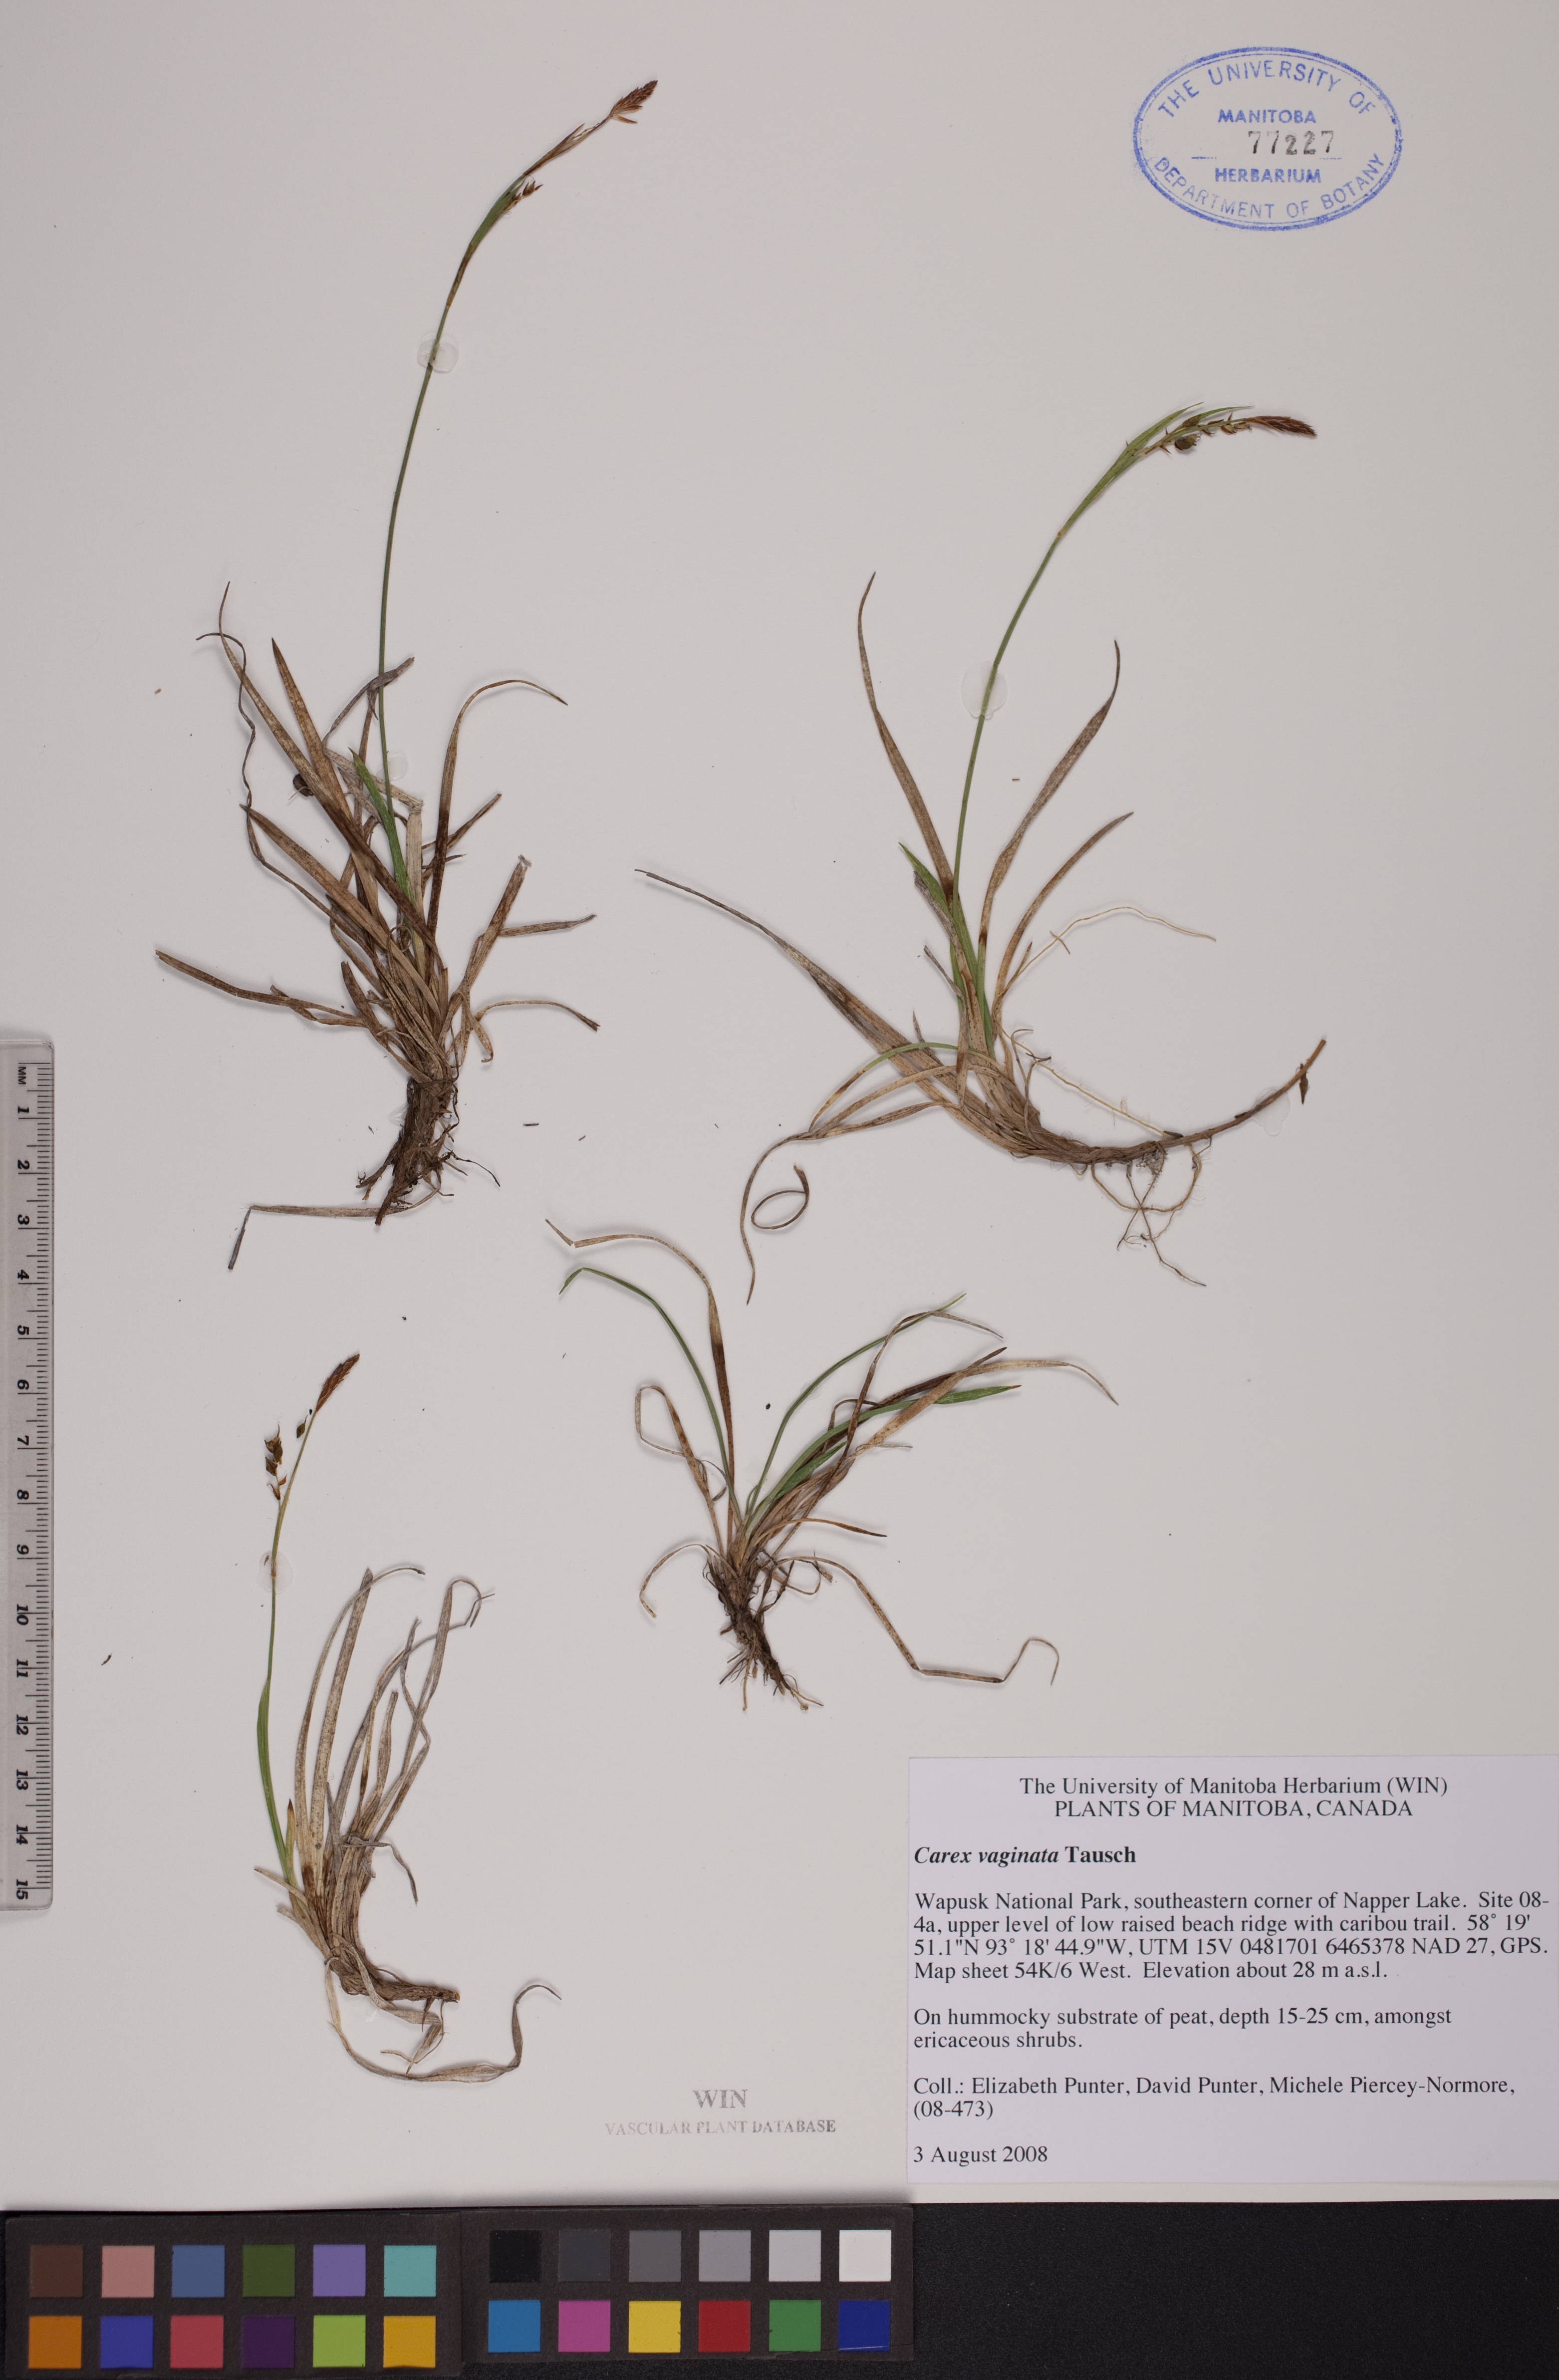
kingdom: Plantae
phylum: Tracheophyta
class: Liliopsida
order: Poales
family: Cyperaceae
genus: Carex
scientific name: Carex vaginata
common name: Sheathed sedge
